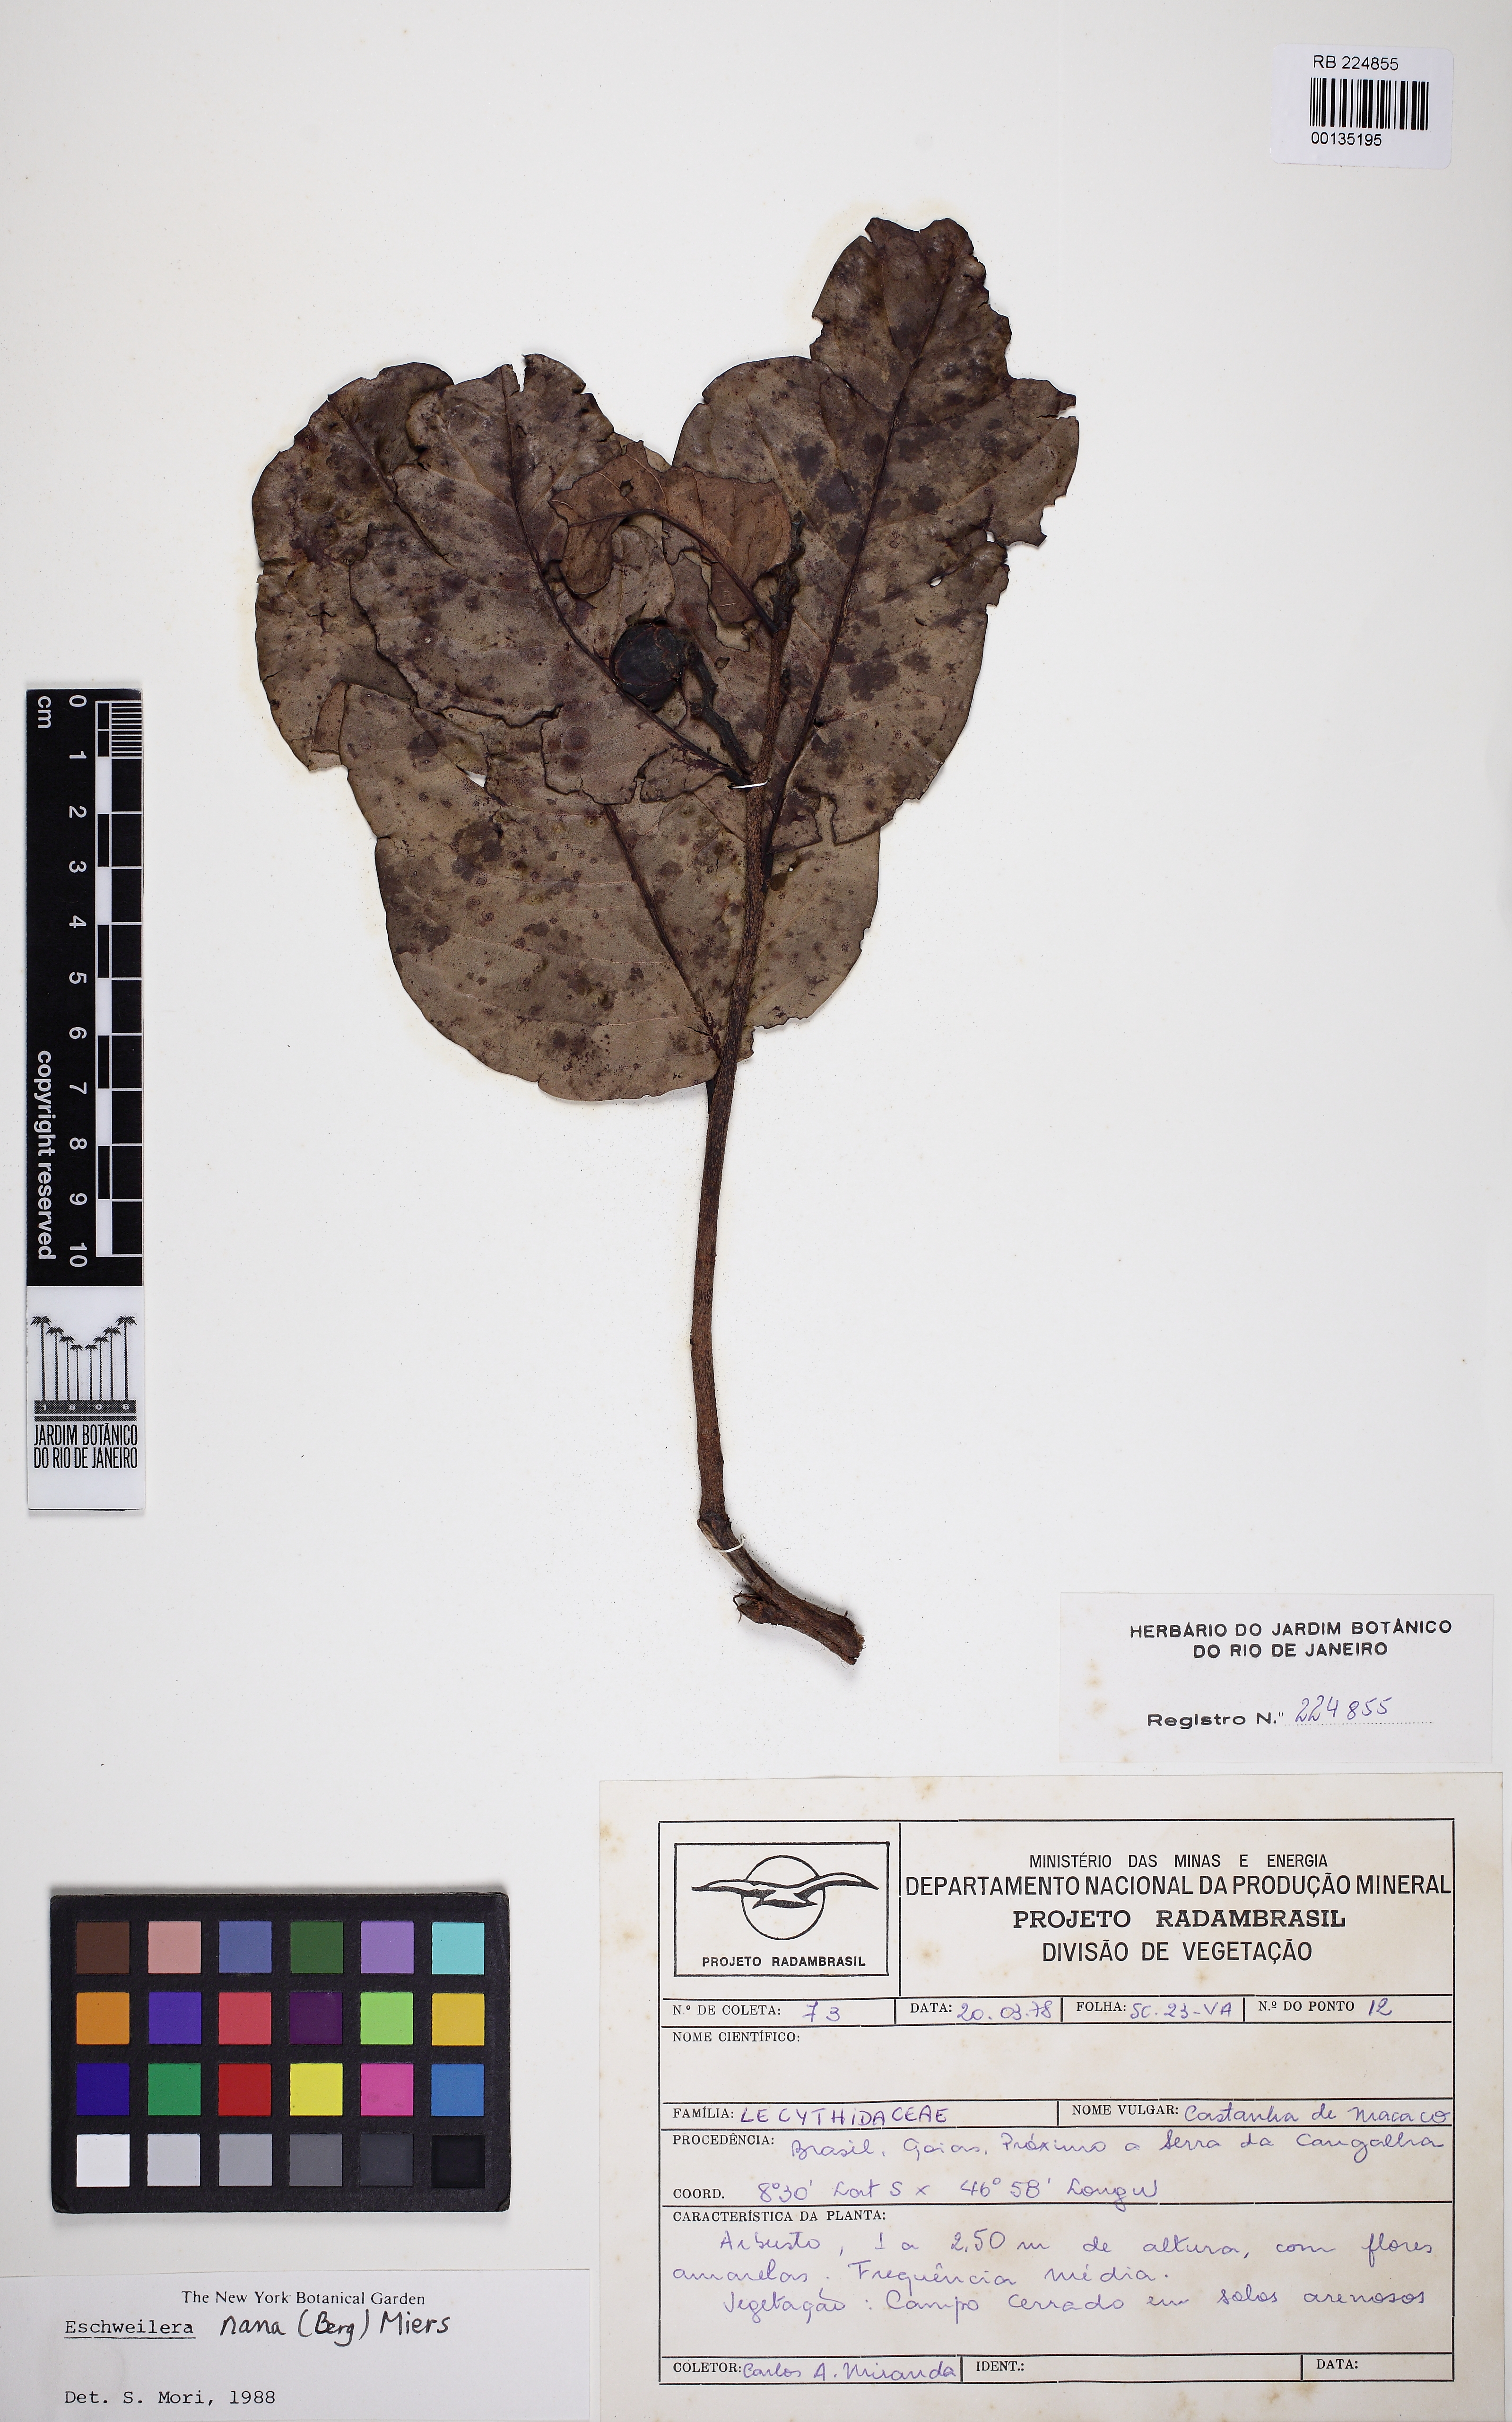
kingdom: Plantae
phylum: Tracheophyta
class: Magnoliopsida
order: Ericales
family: Lecythidaceae
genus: Eschweilera
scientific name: Eschweilera nana
